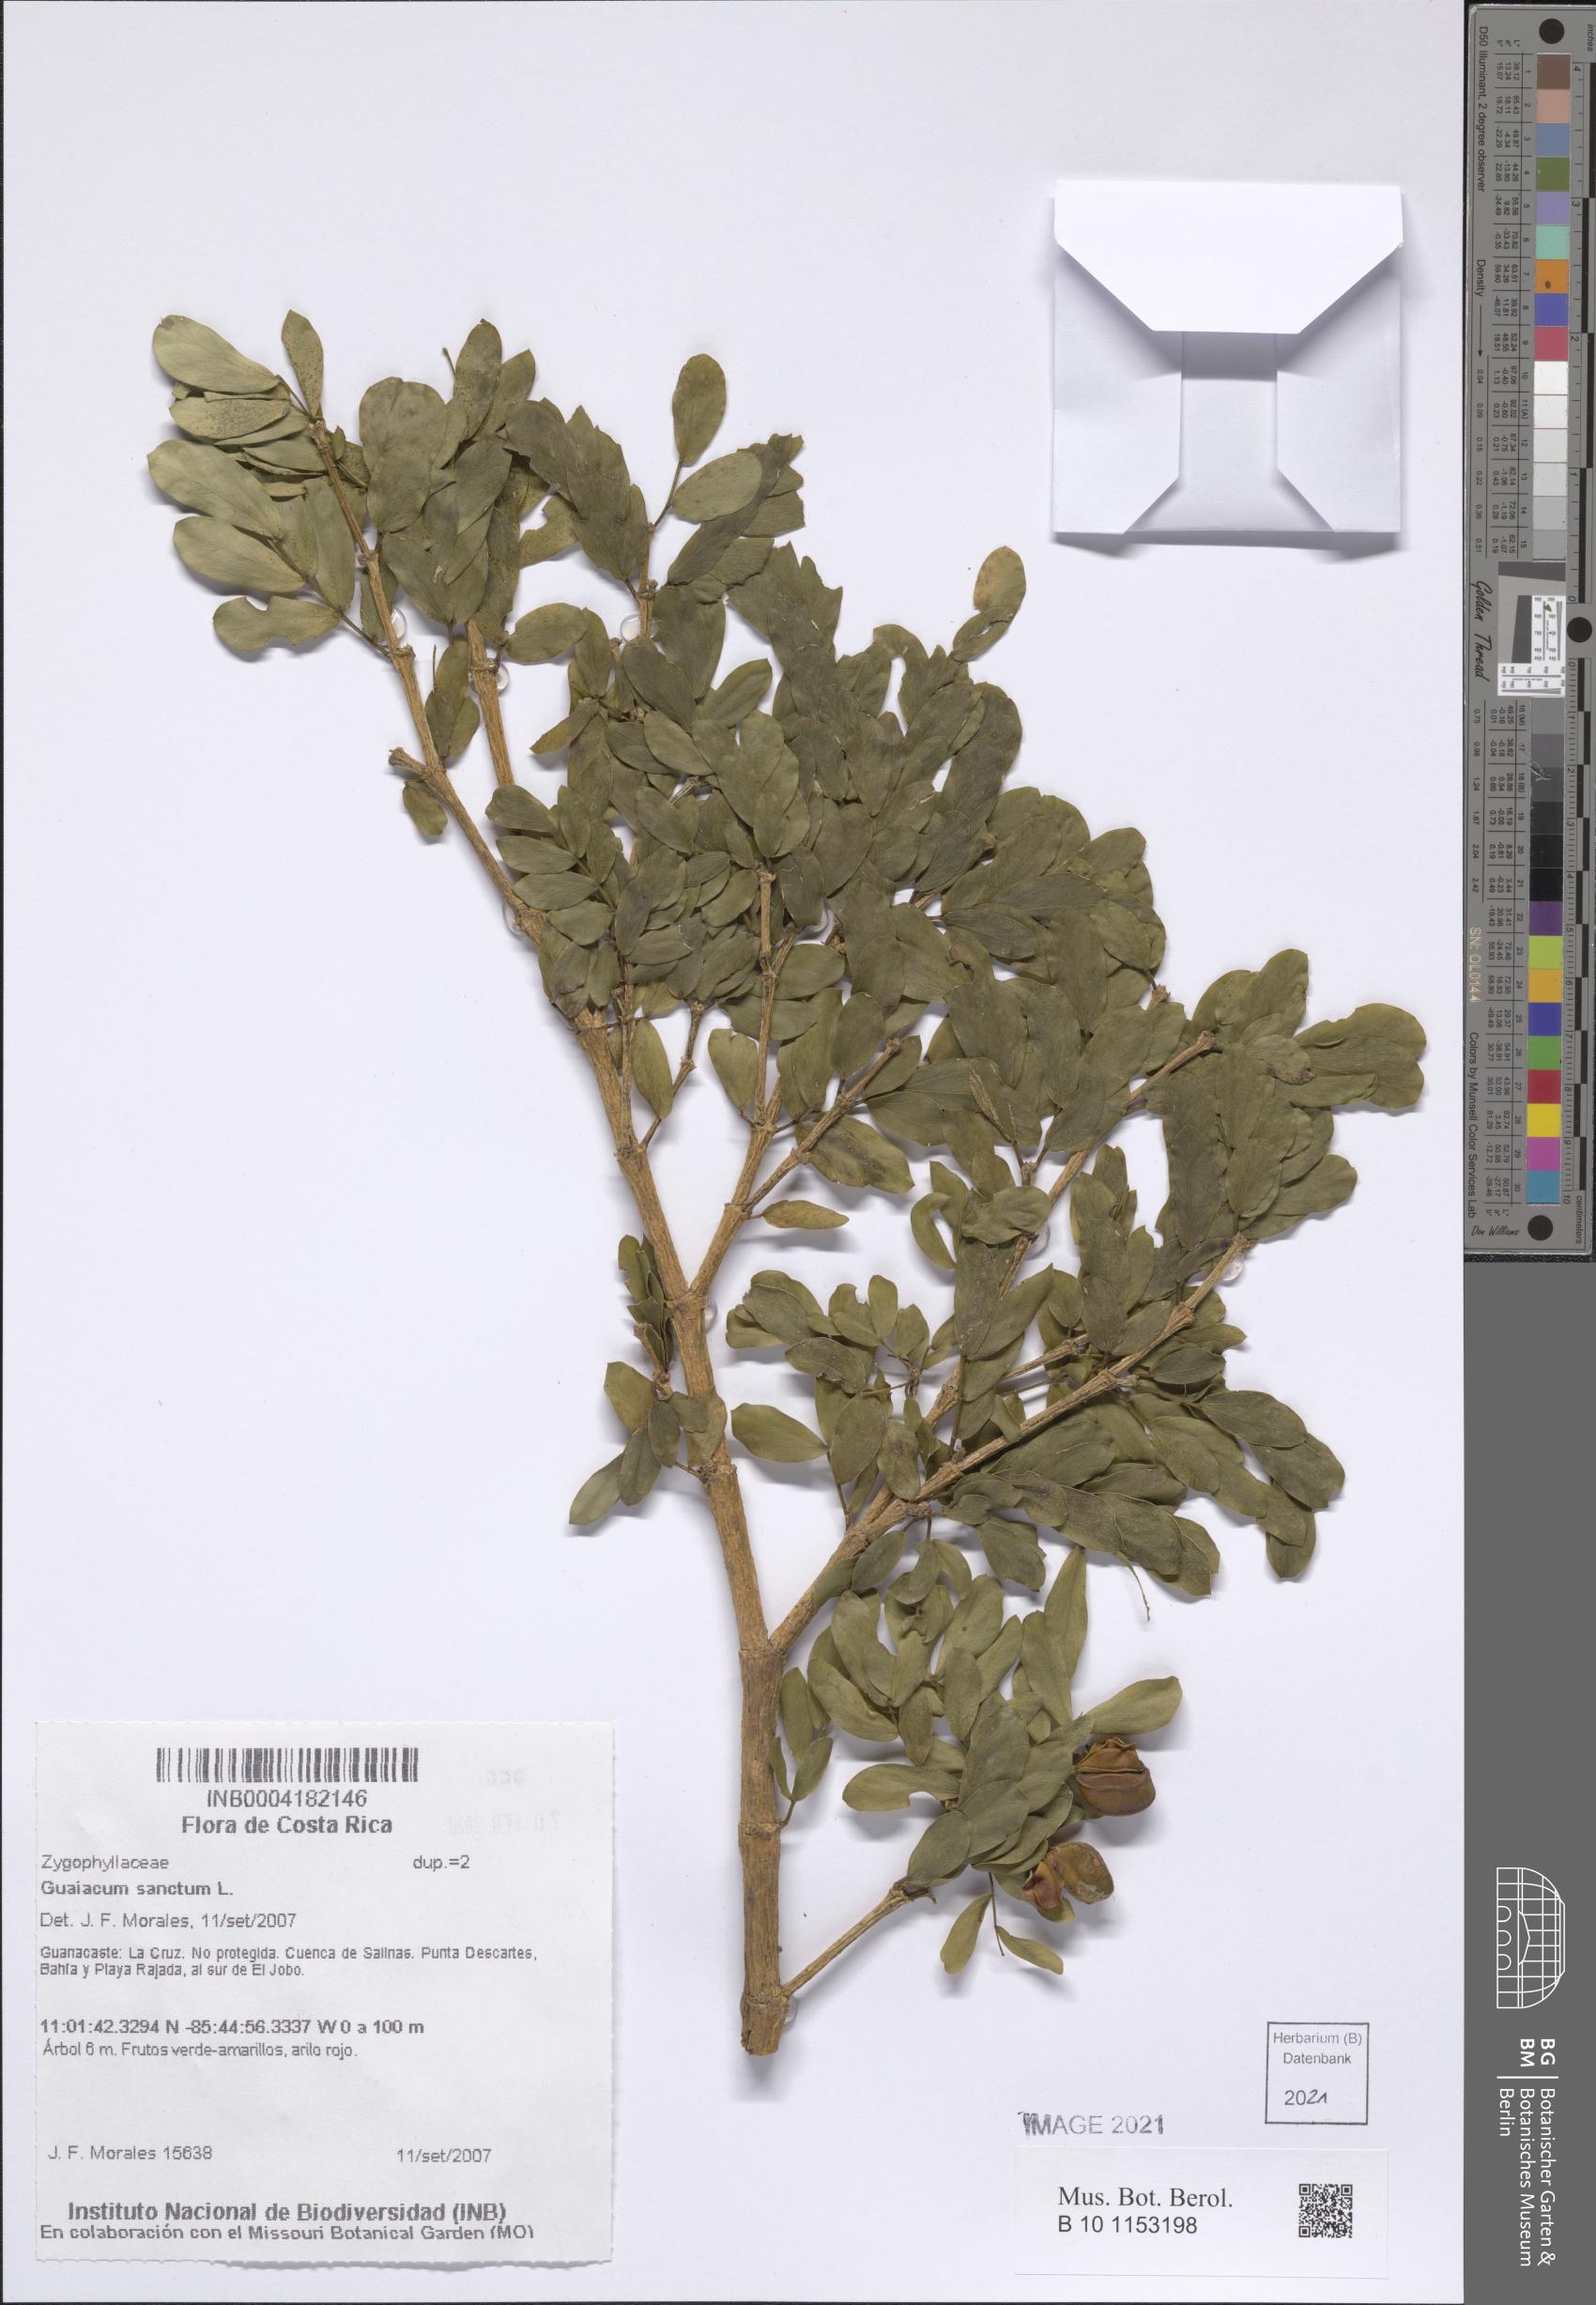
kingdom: Plantae
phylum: Tracheophyta
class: Magnoliopsida
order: Zygophyllales
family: Zygophyllaceae
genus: Guaiacum
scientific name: Guaiacum sanctum
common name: Holywood
